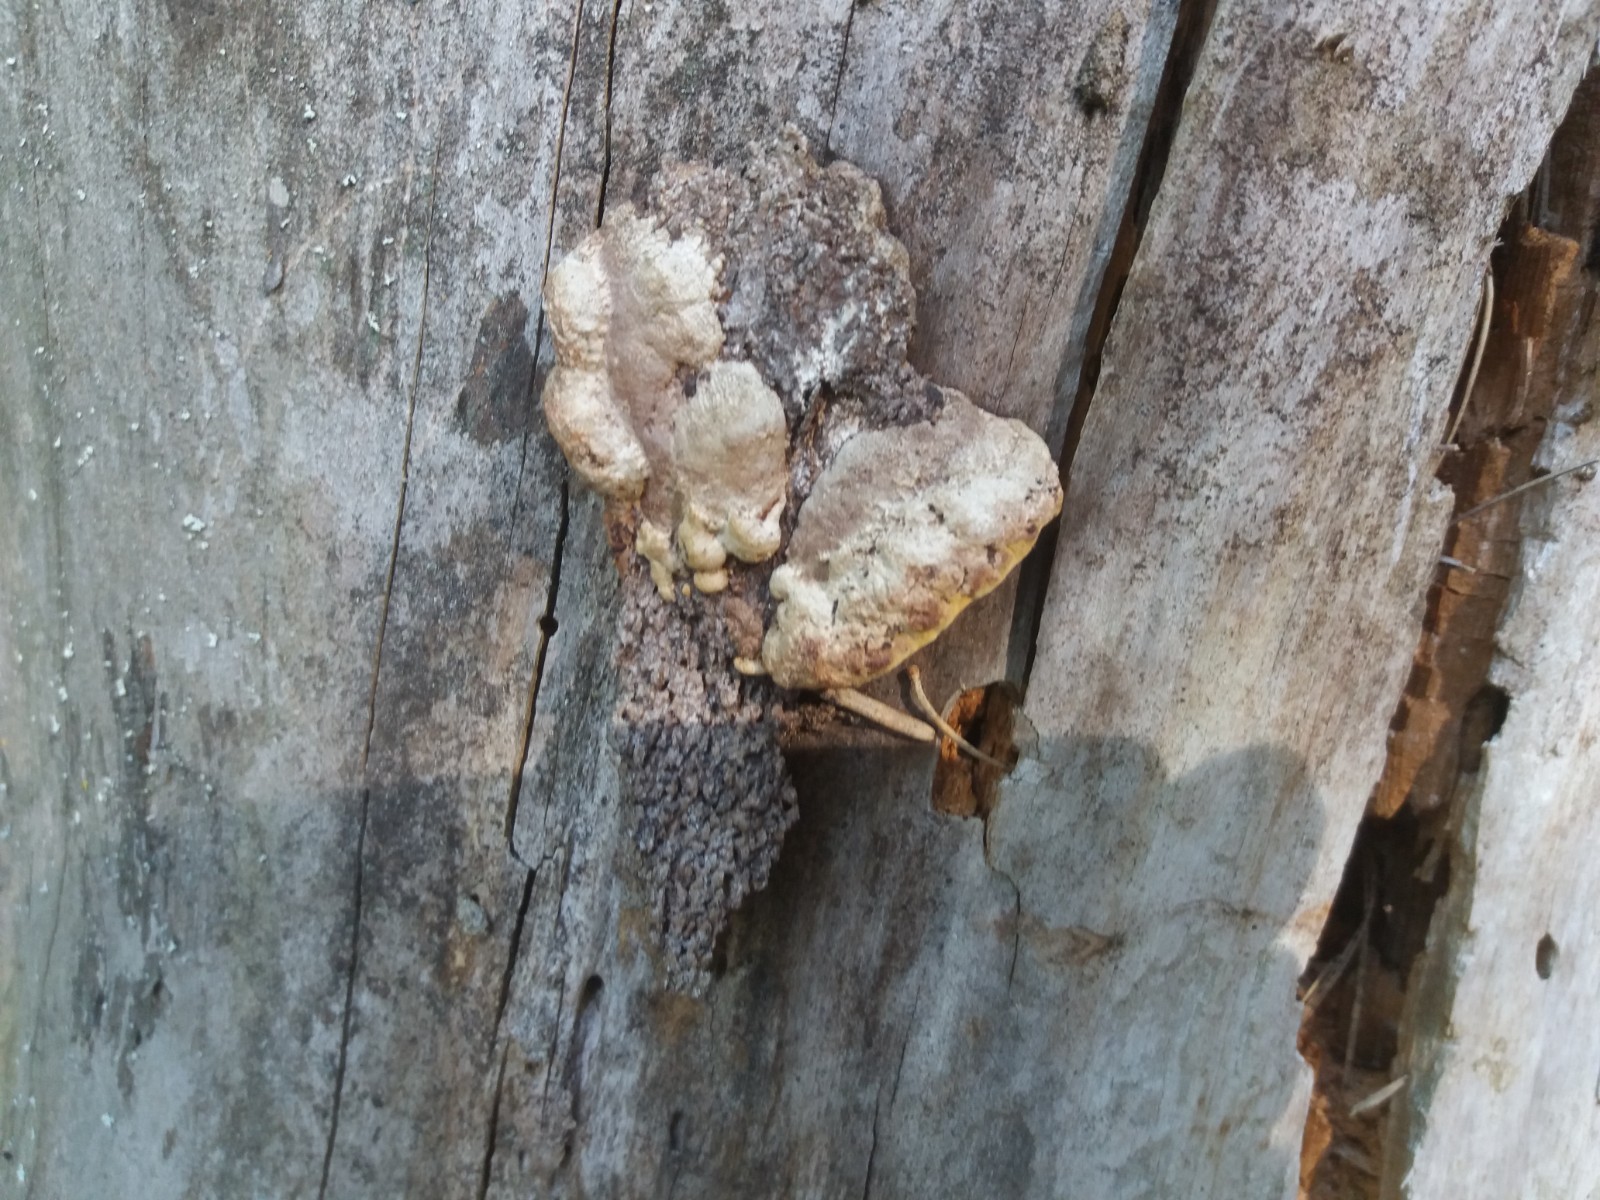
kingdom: Fungi
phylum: Basidiomycota
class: Agaricomycetes
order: Gloeophyllales
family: Gloeophyllaceae
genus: Gloeophyllum
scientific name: Gloeophyllum odoratum
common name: duftende korkhat
